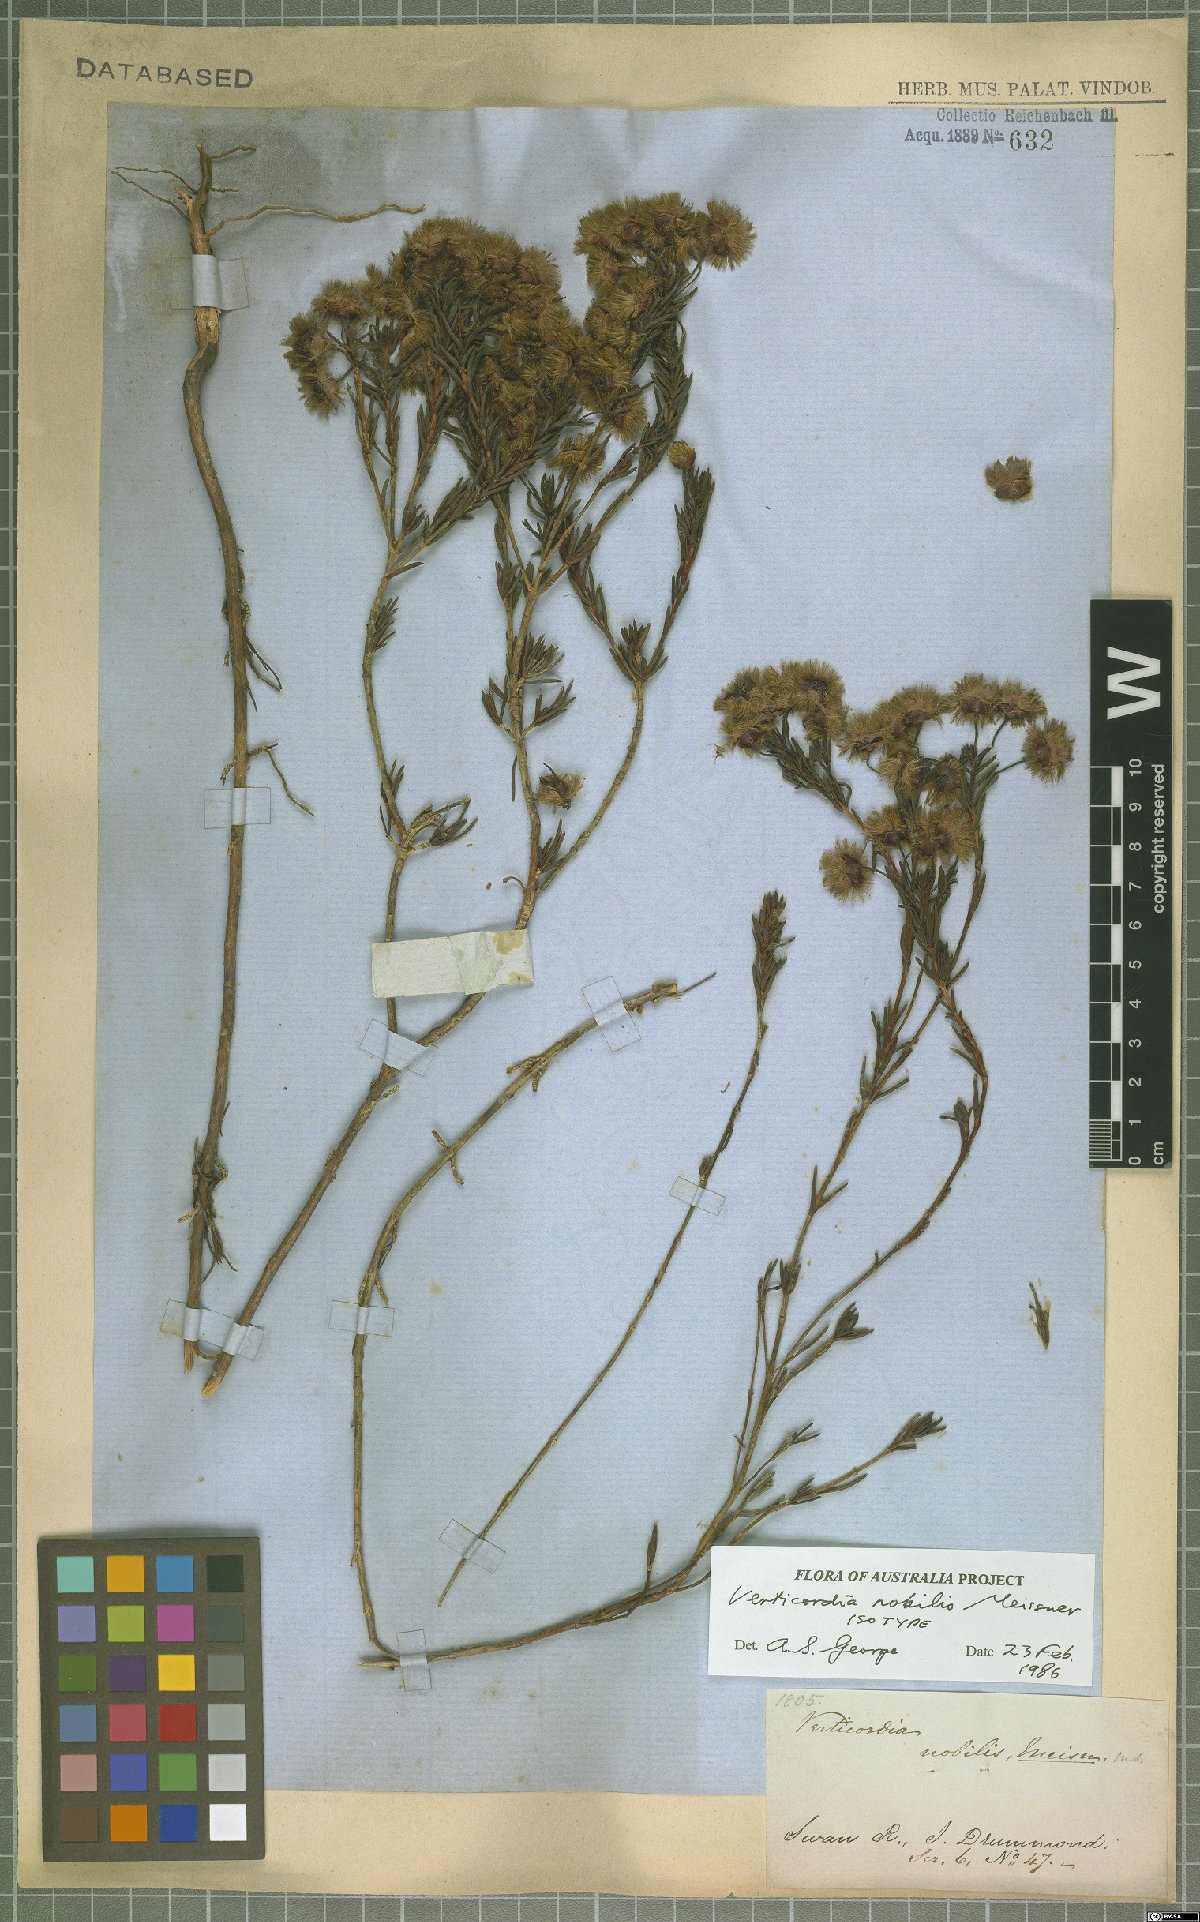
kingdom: Plantae
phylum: Tracheophyta
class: Magnoliopsida
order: Myrtales
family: Myrtaceae
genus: Verticordia
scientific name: Verticordia nobilis
